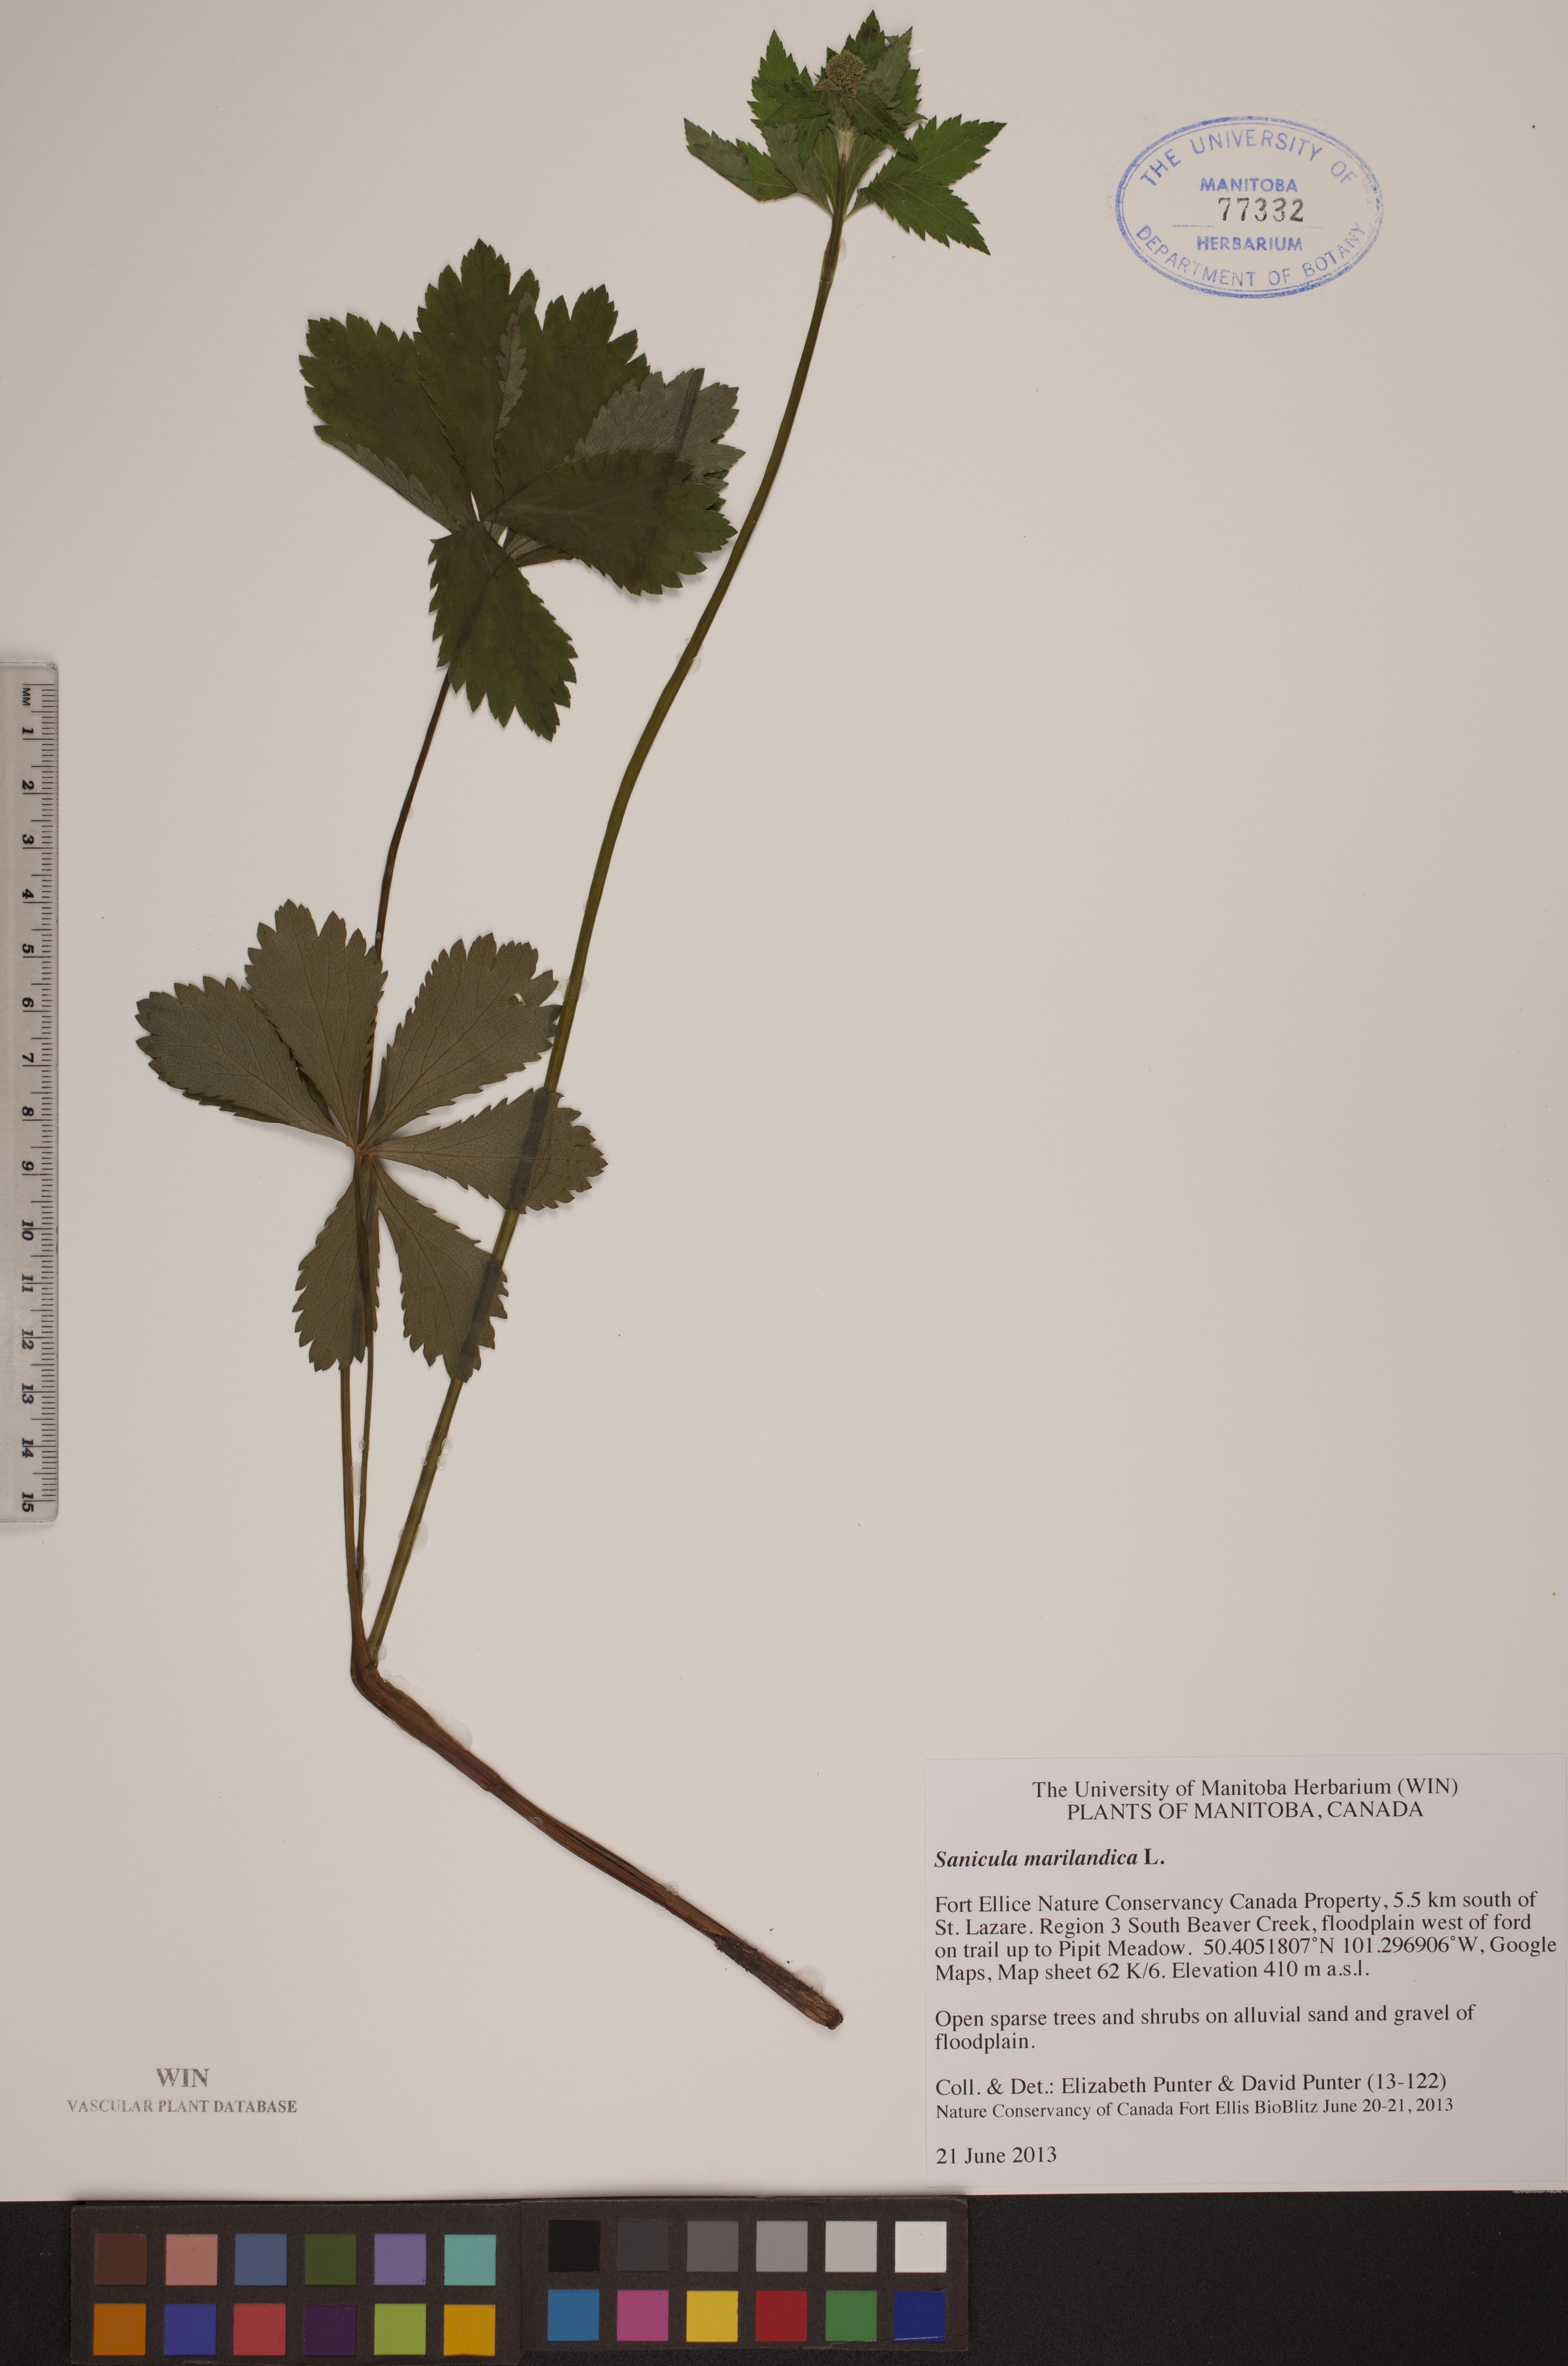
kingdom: Plantae
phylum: Tracheophyta
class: Magnoliopsida
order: Apiales
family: Apiaceae
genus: Sanicula
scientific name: Sanicula marilandica
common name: Black snakeroot
